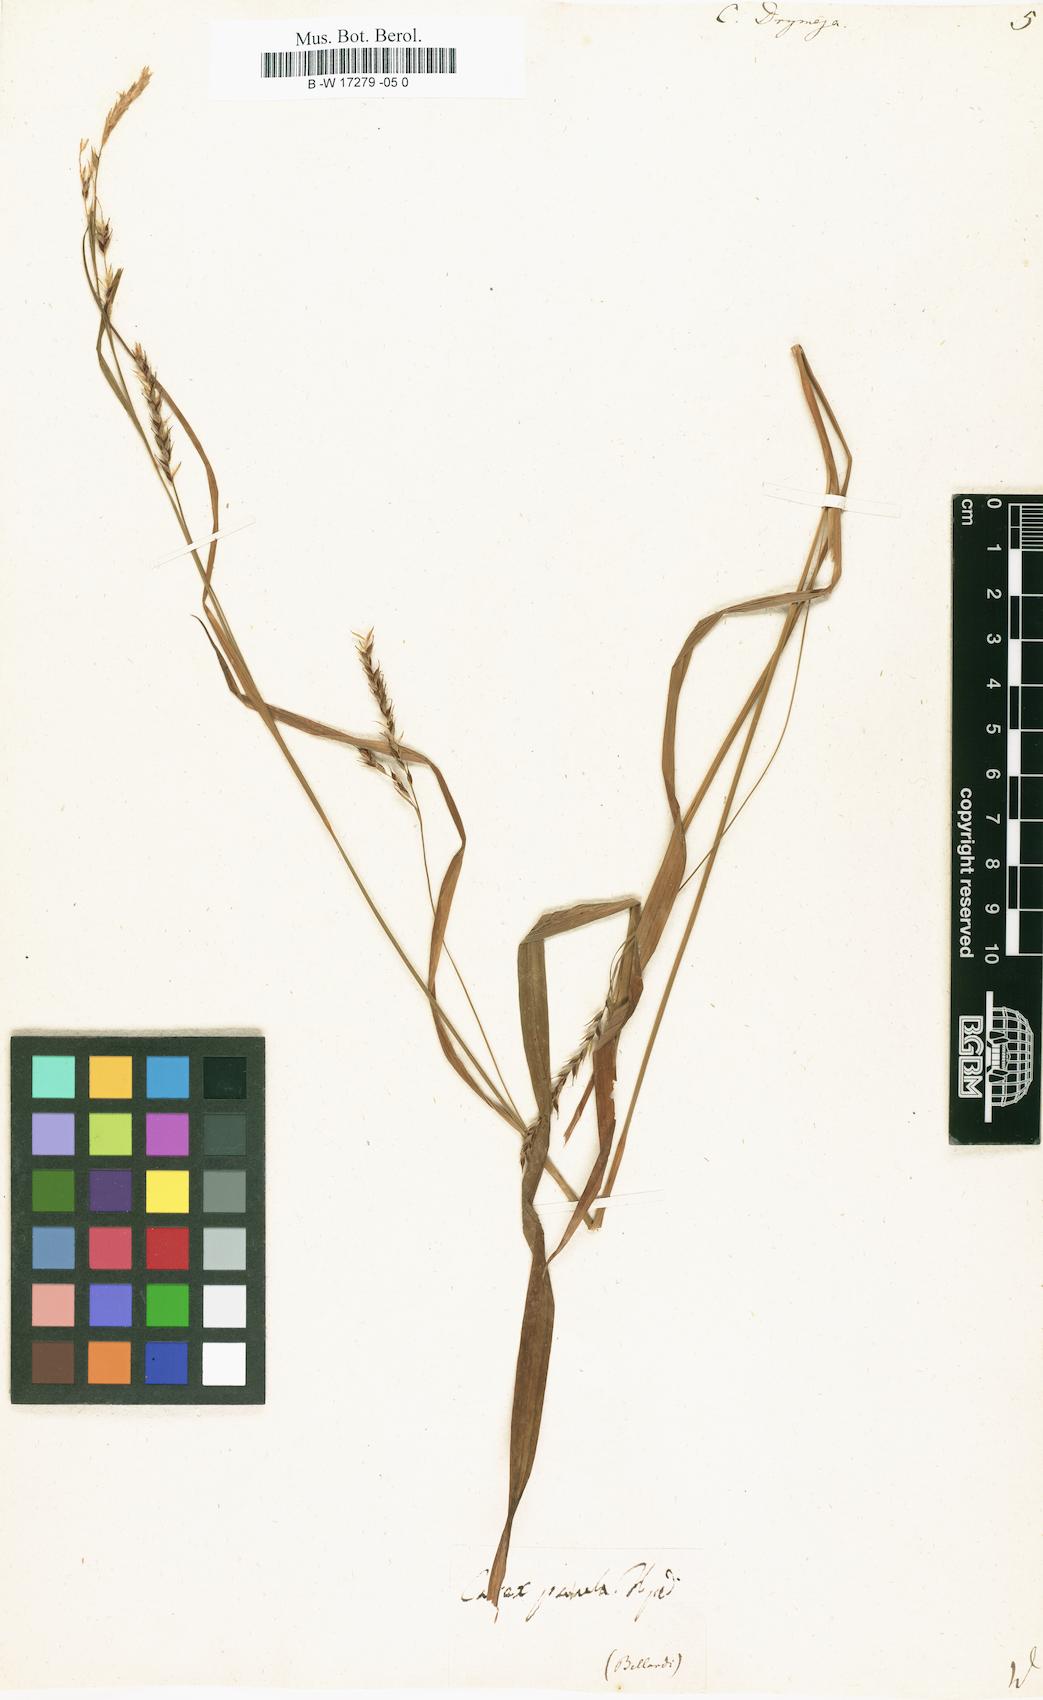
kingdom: Plantae
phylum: Tracheophyta
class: Liliopsida
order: Poales
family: Cyperaceae
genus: Carex
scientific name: Carex sylvatica
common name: Wood-sedge
